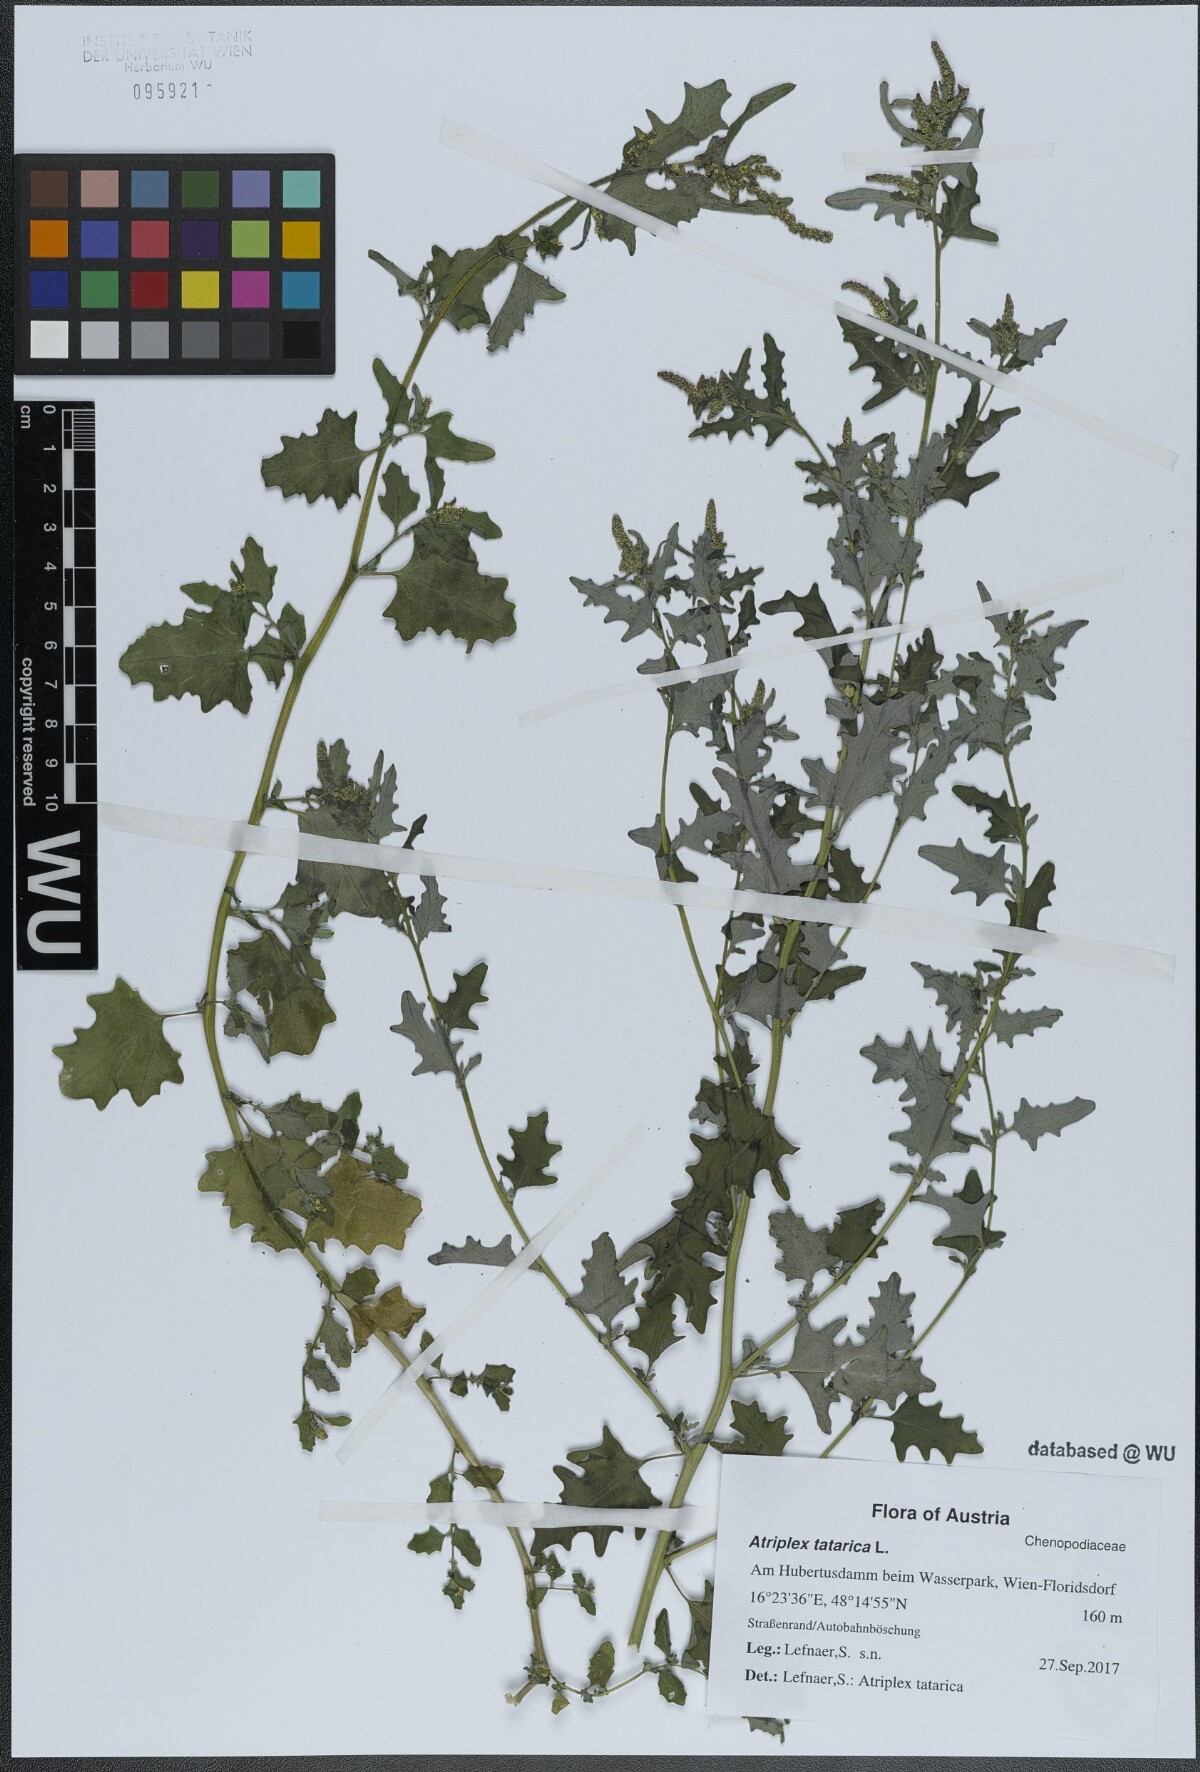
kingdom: Plantae
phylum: Tracheophyta
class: Magnoliopsida
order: Caryophyllales
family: Amaranthaceae
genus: Atriplex
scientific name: Atriplex tatarica
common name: Tatarian orache
